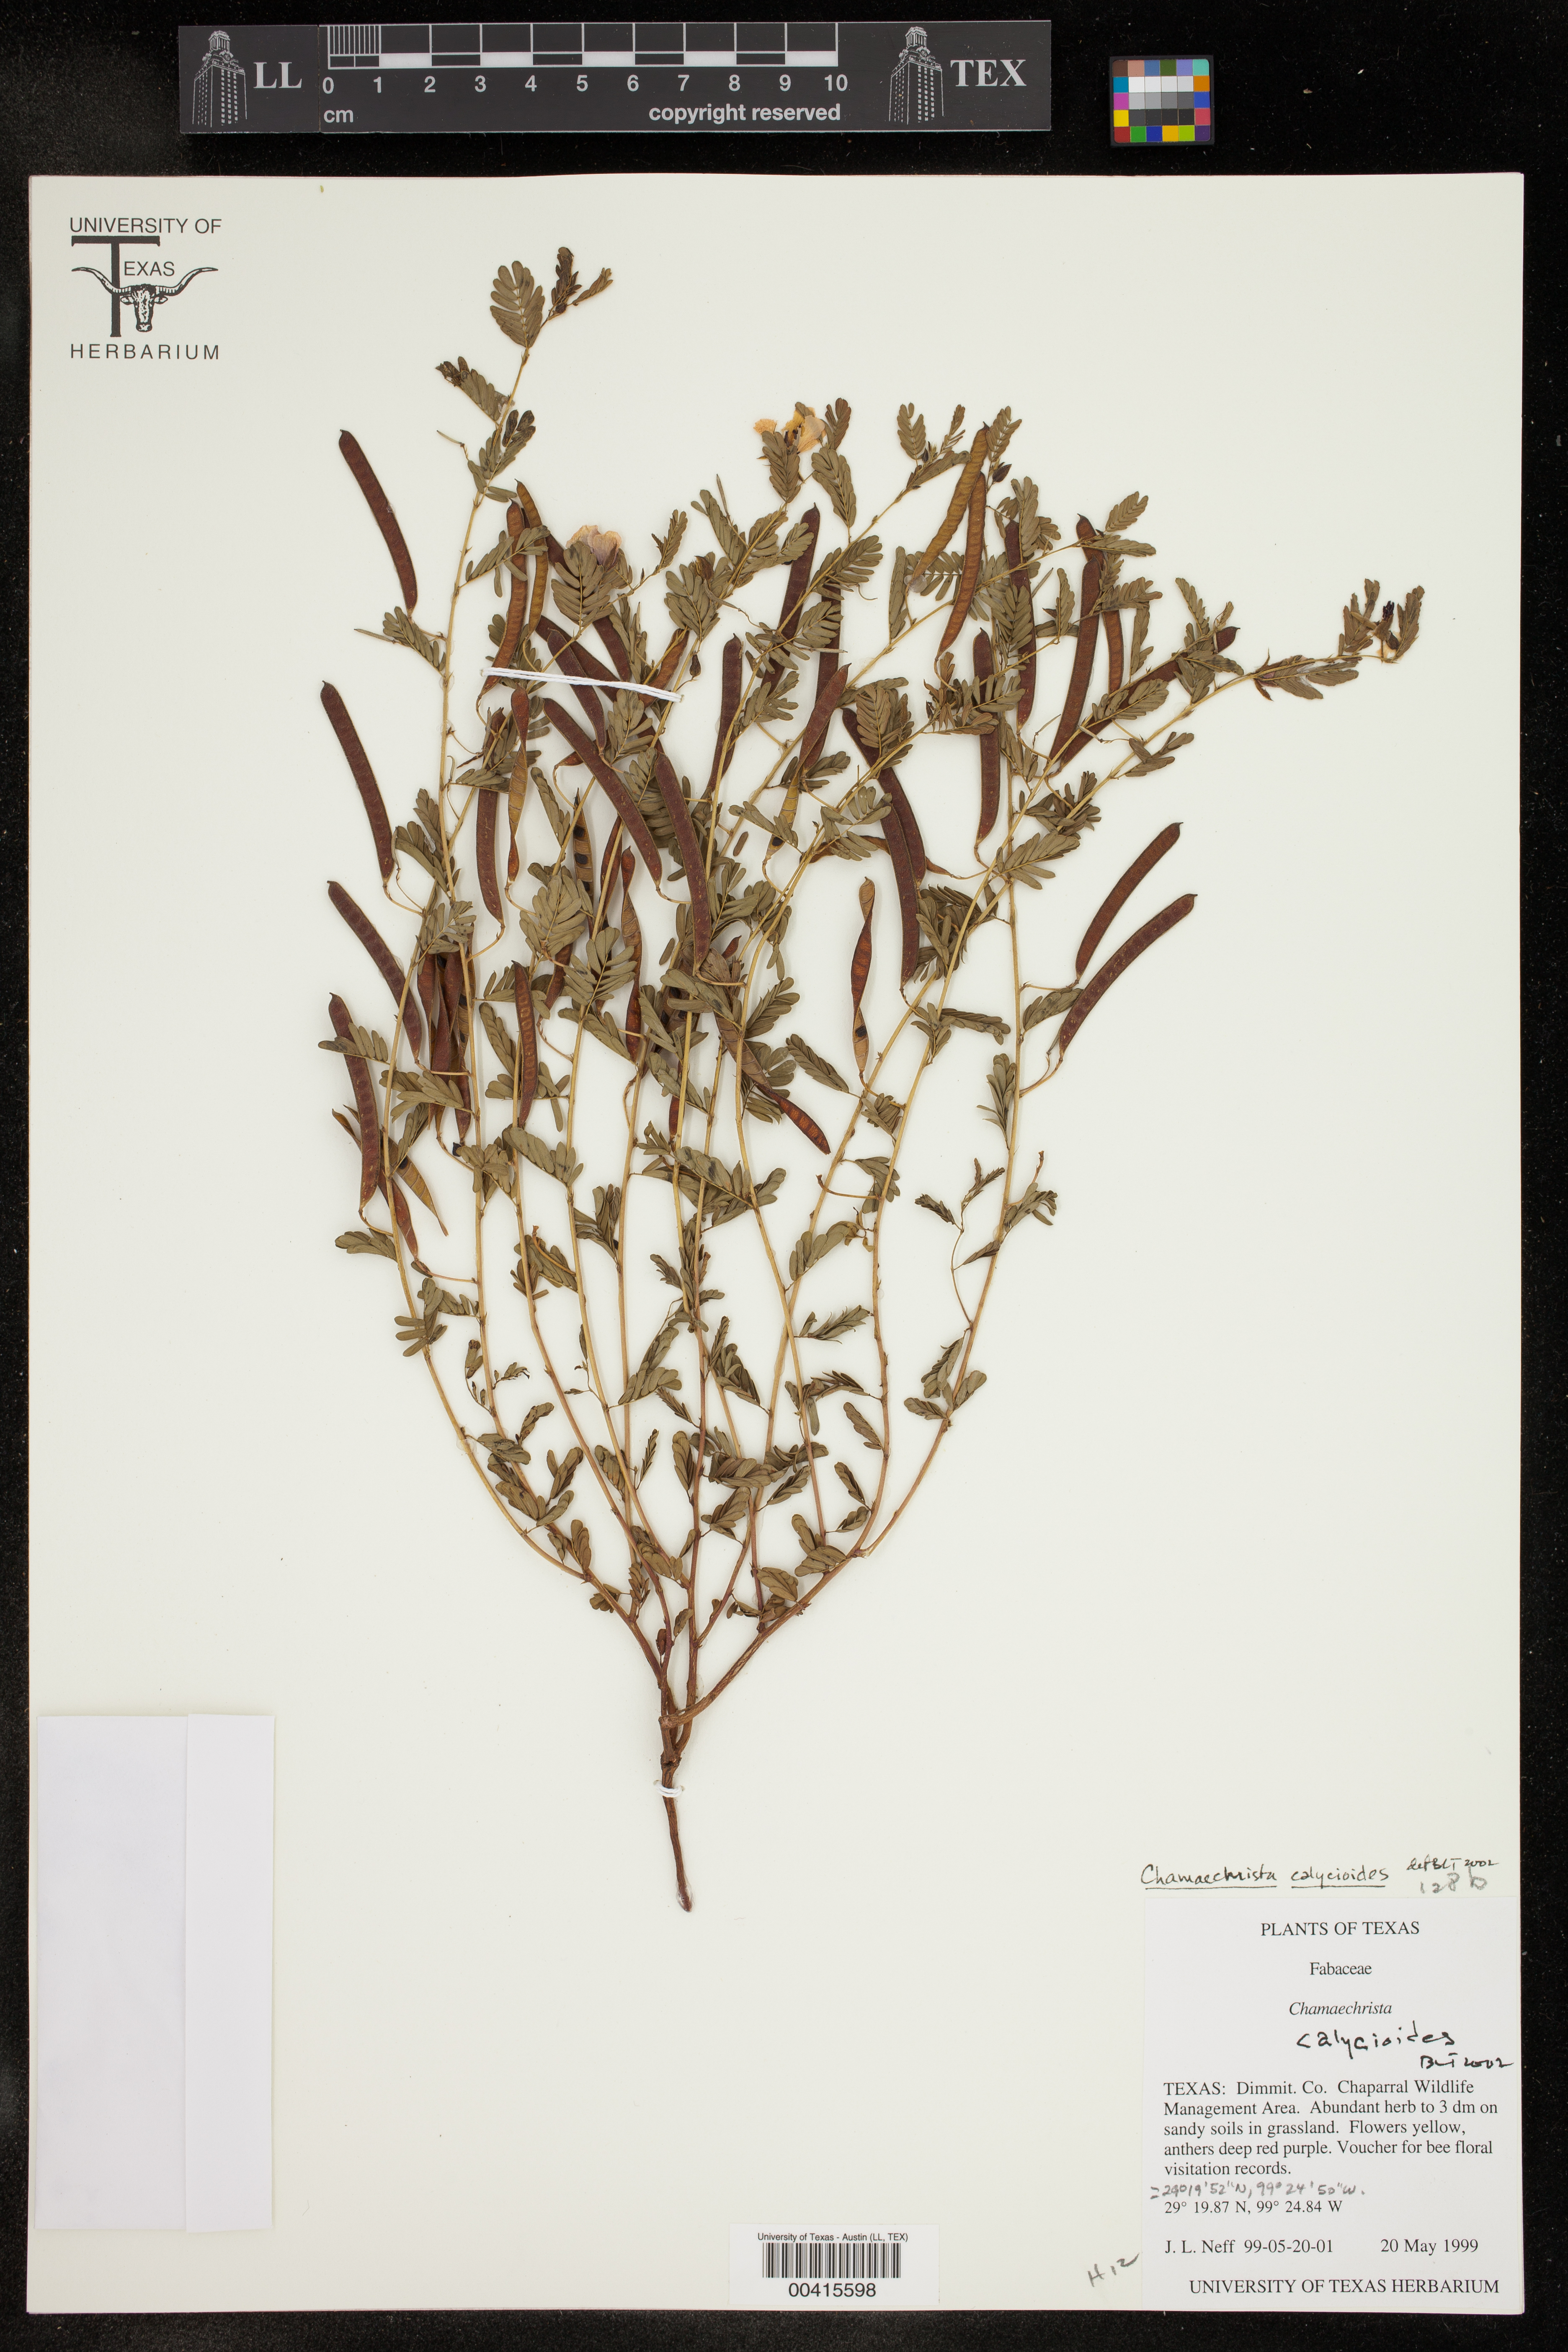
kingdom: Plantae
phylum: Tracheophyta
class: Magnoliopsida
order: Fabales
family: Fabaceae
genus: Chamaecrista
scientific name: Chamaecrista calycioides
